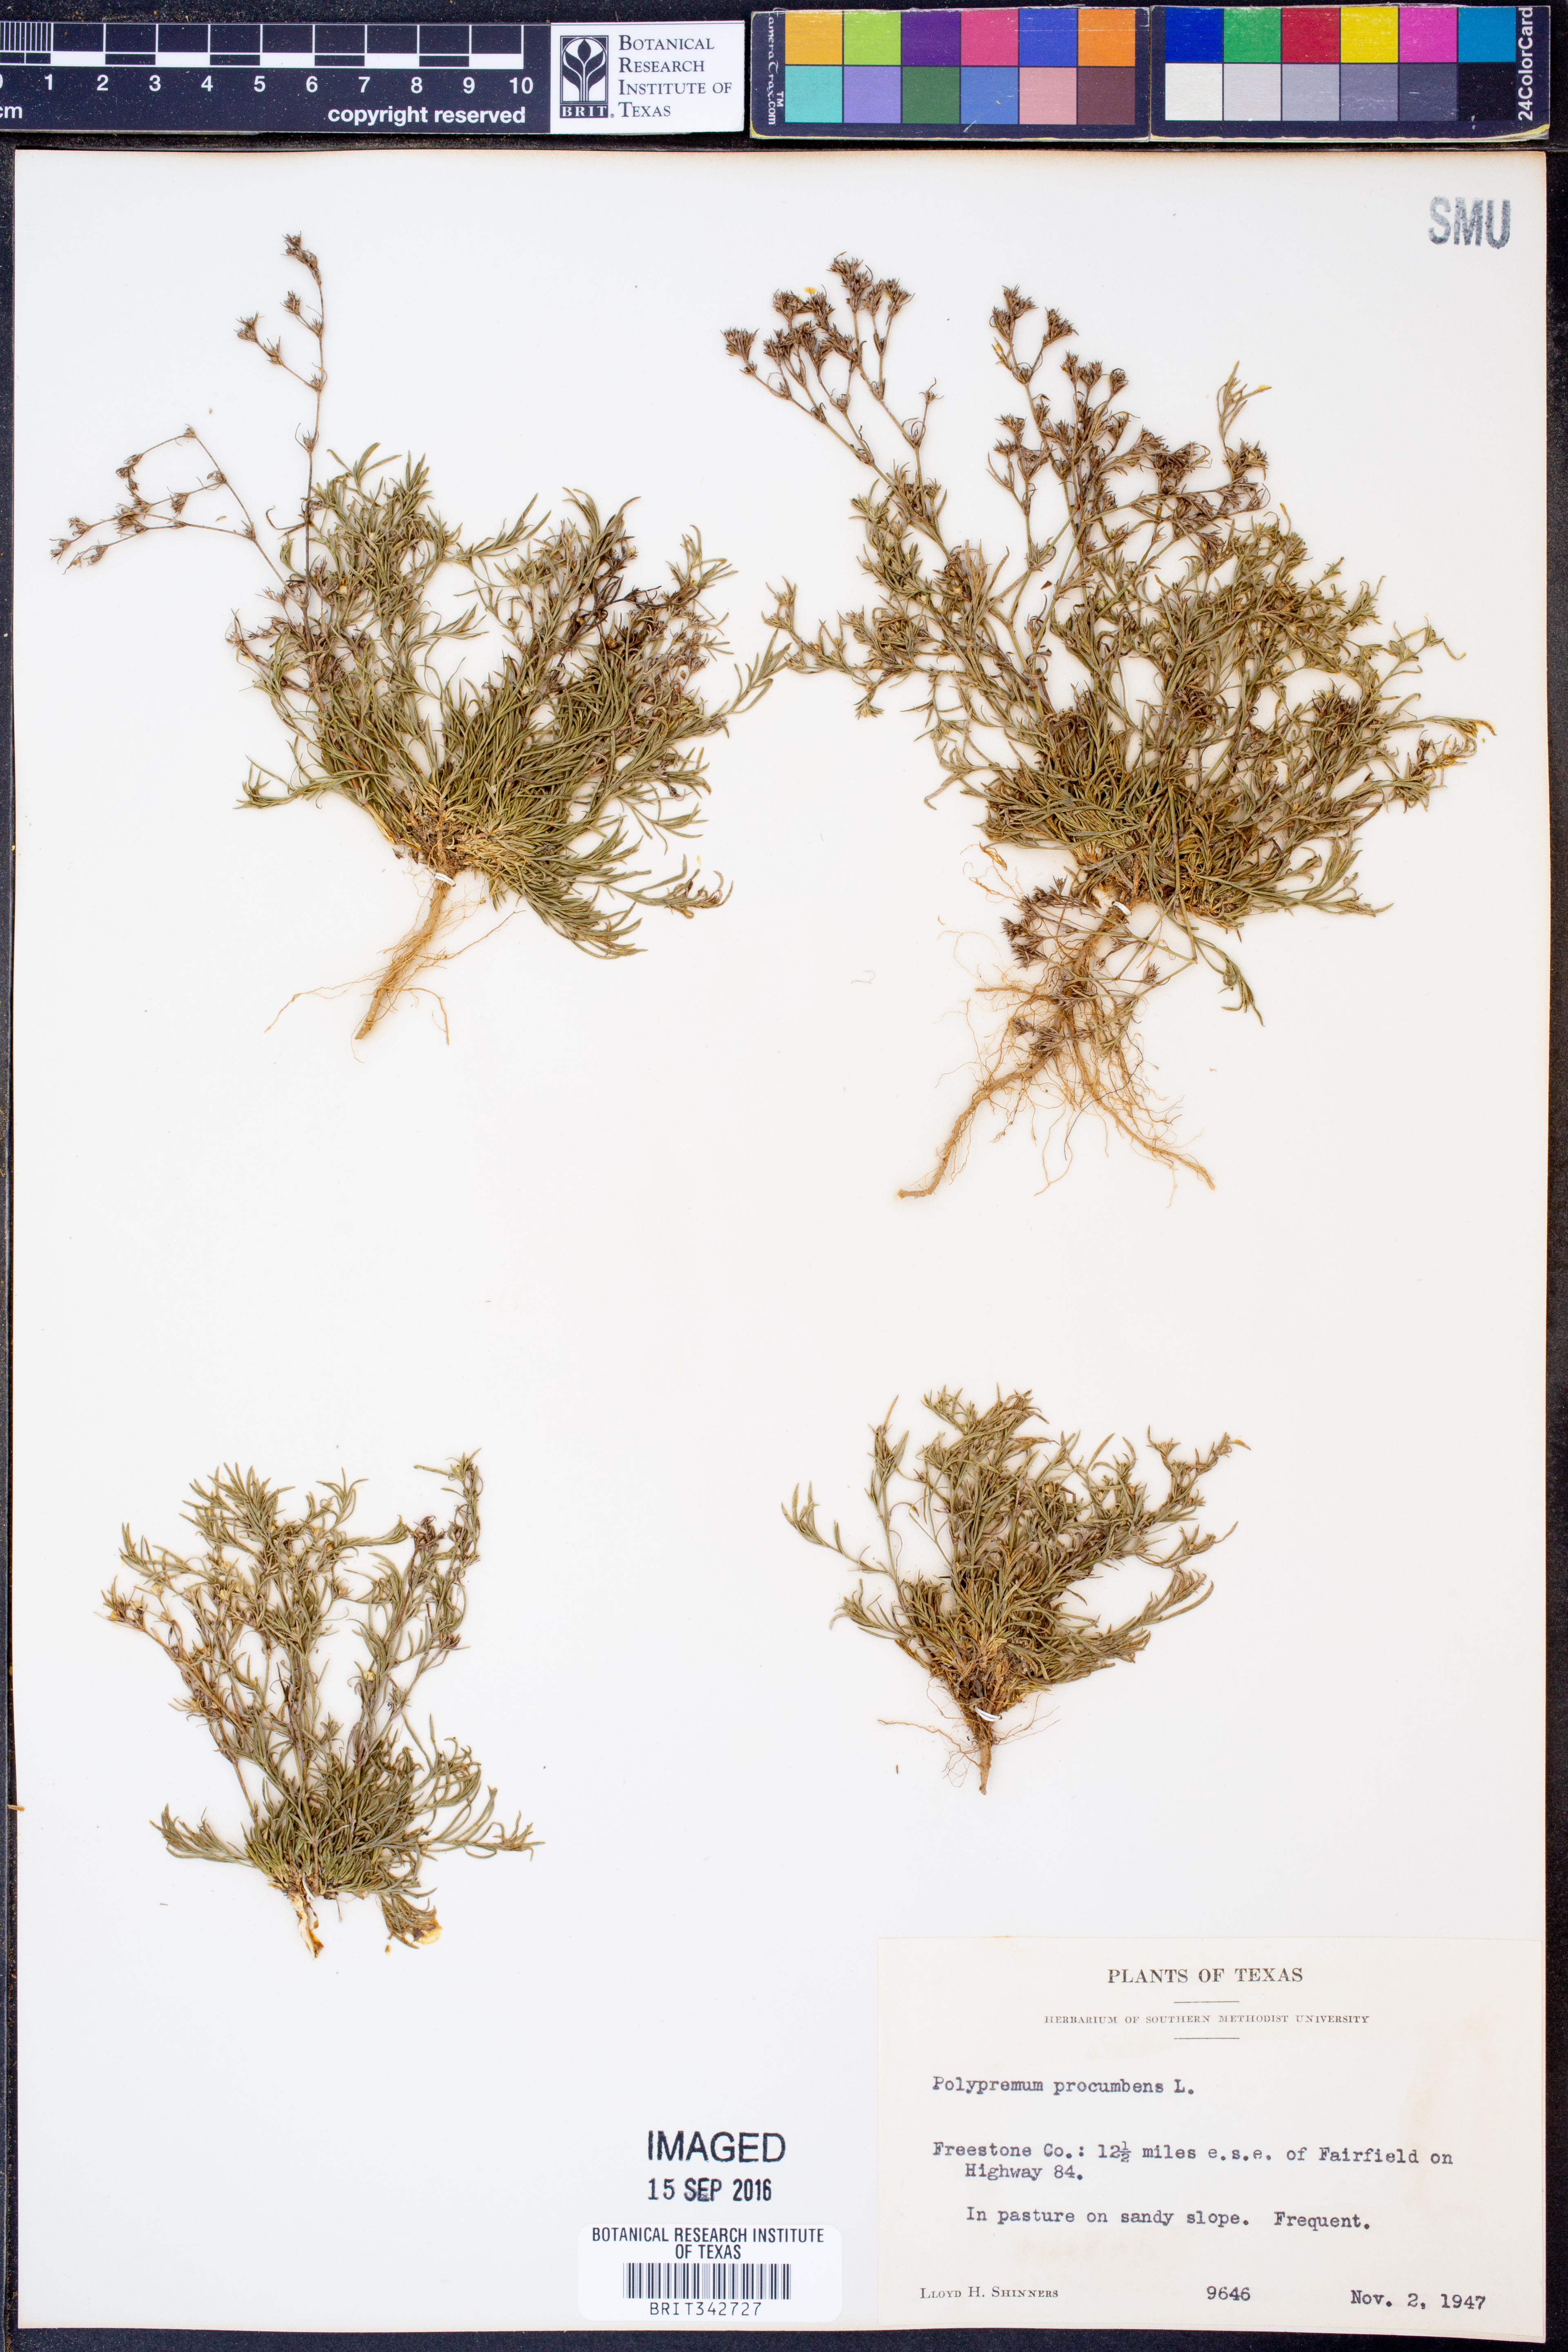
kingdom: Plantae
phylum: Tracheophyta
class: Magnoliopsida
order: Lamiales
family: Tetrachondraceae
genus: Polypremum
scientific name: Polypremum procumbens
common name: Juniper-leaf
